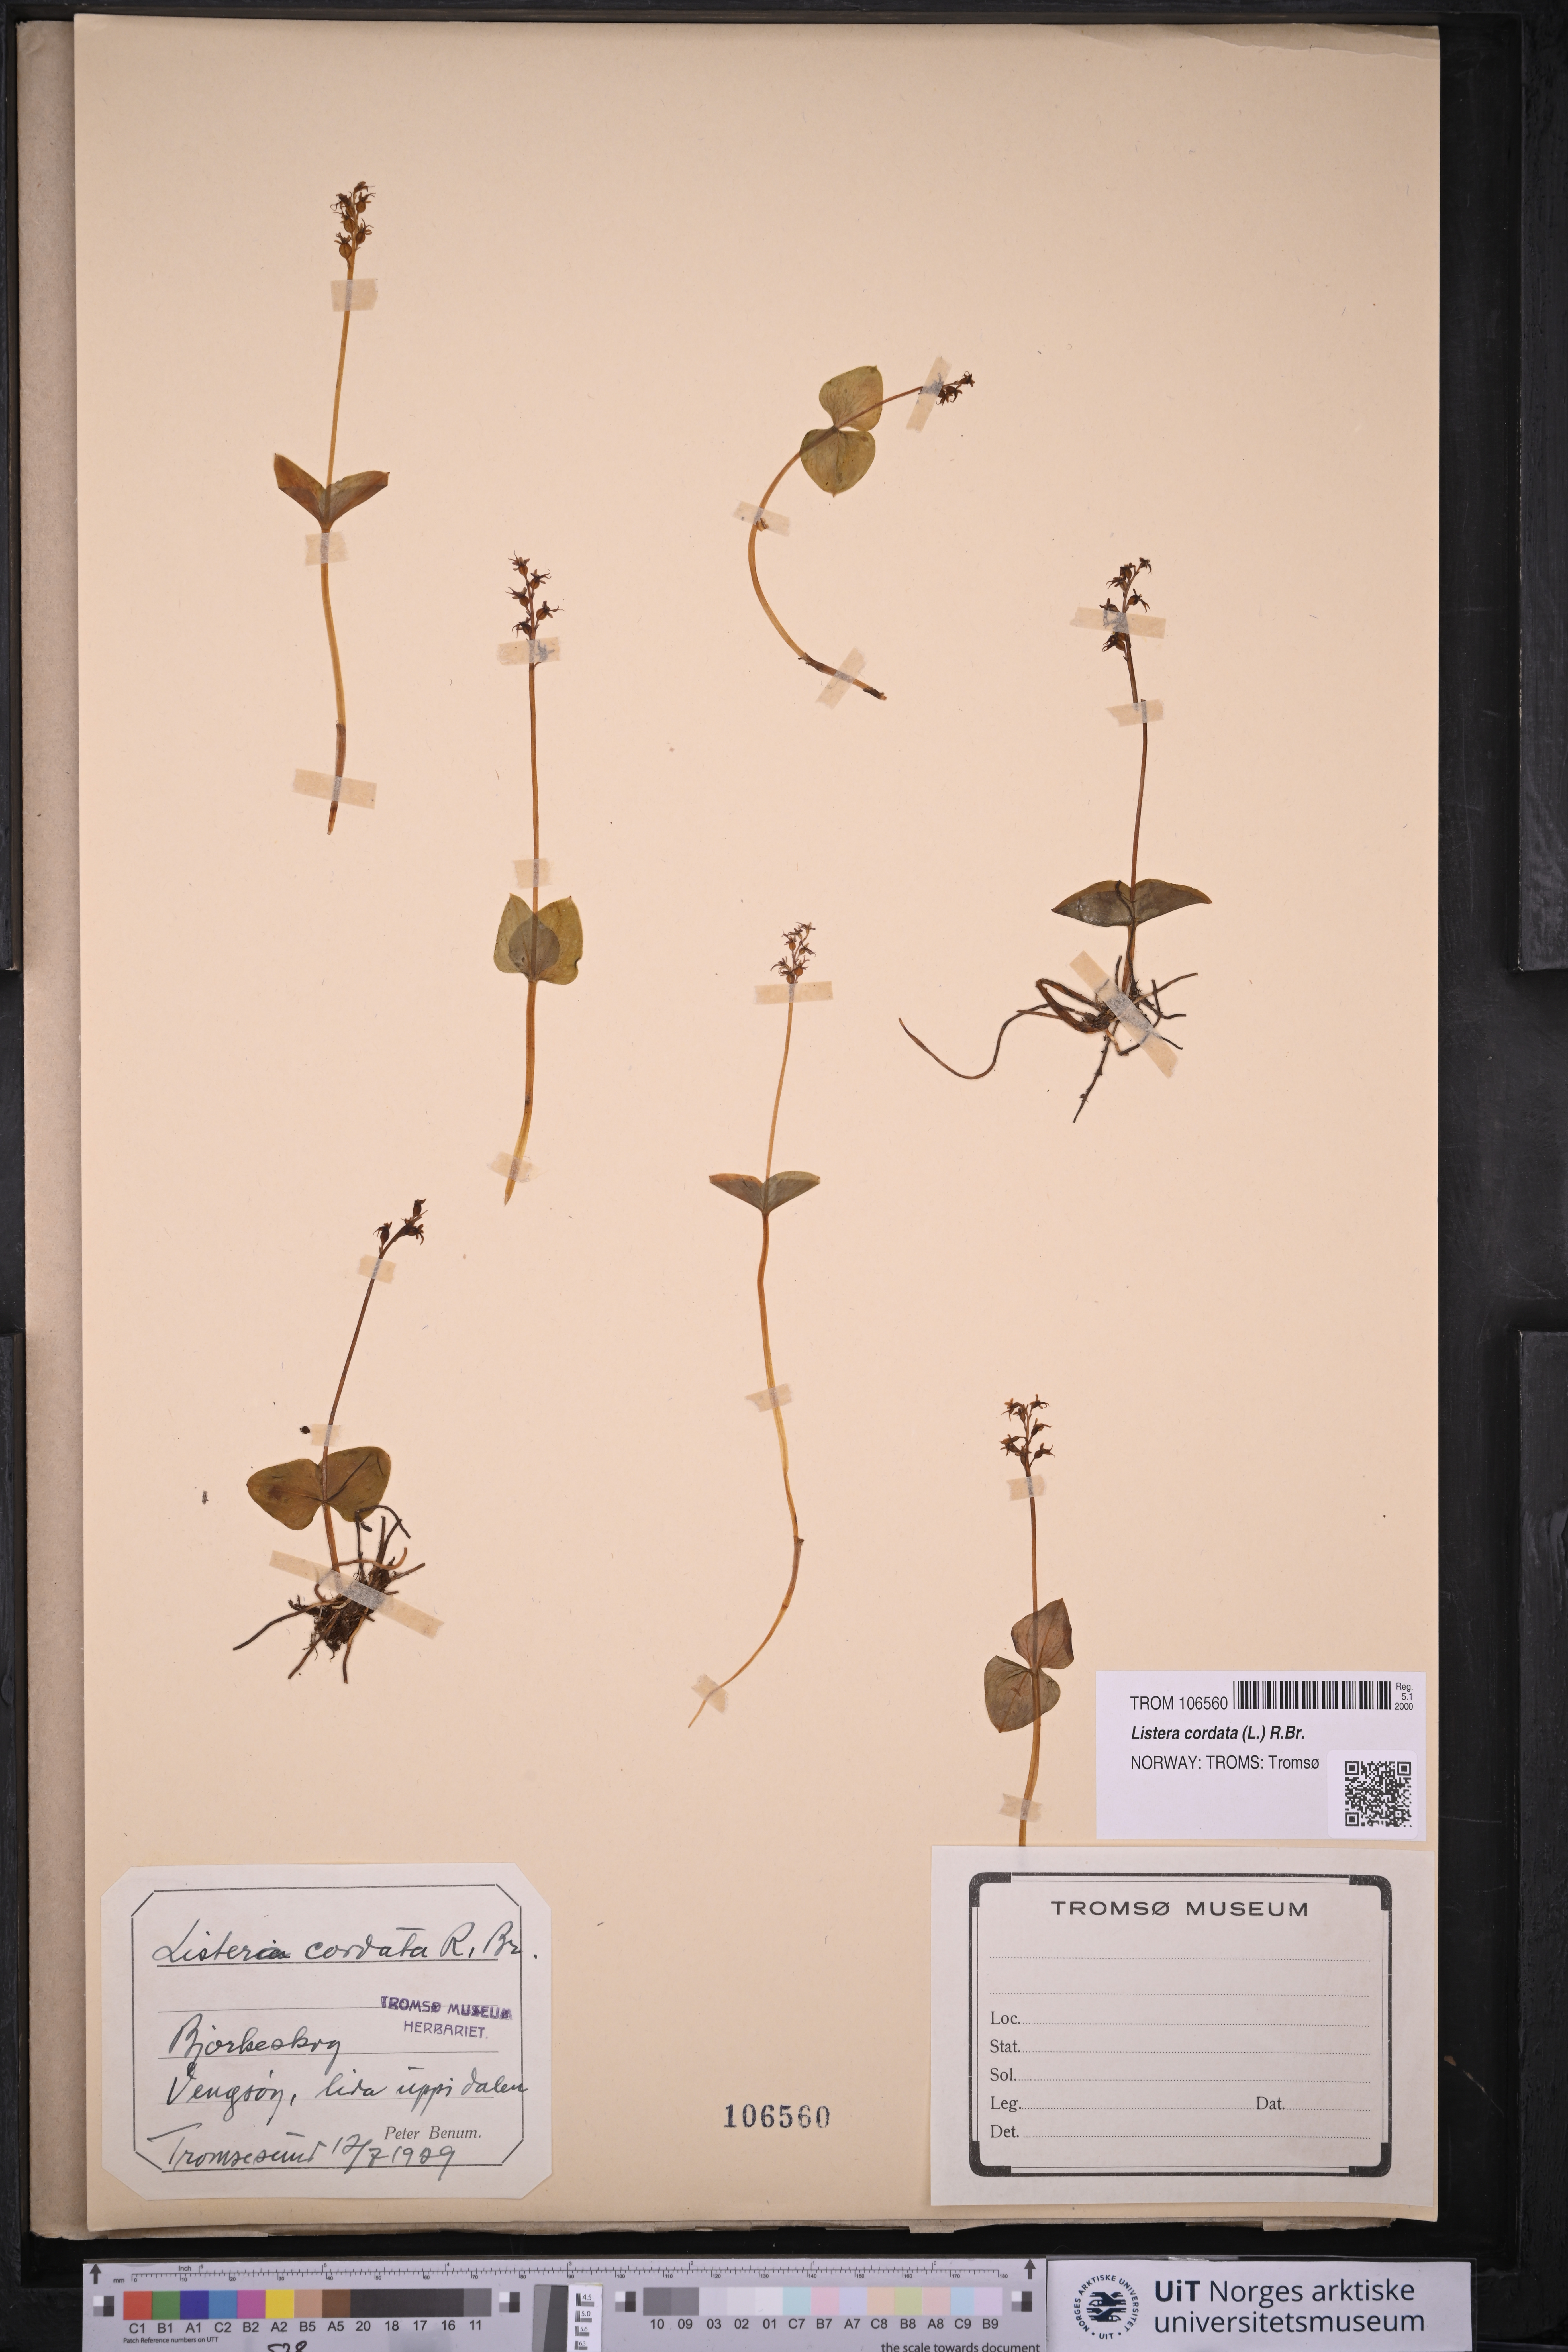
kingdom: Plantae
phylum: Tracheophyta
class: Liliopsida
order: Asparagales
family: Orchidaceae
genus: Neottia
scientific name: Neottia cordata
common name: Lesser twayblade
